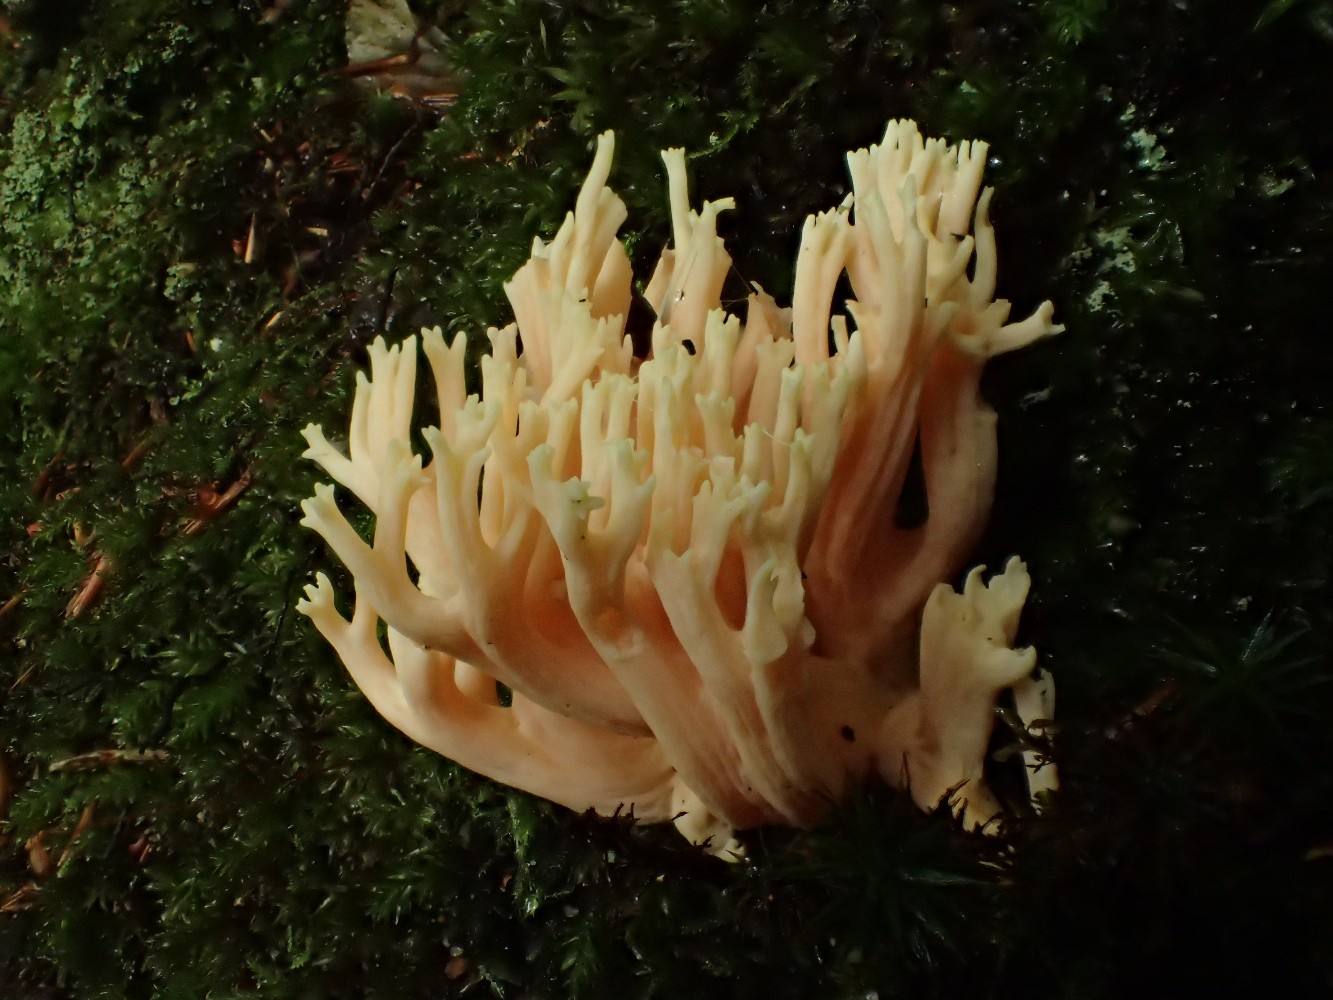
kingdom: Fungi
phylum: Basidiomycota
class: Agaricomycetes
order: Gomphales
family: Gomphaceae
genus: Ramaria
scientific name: Ramaria
